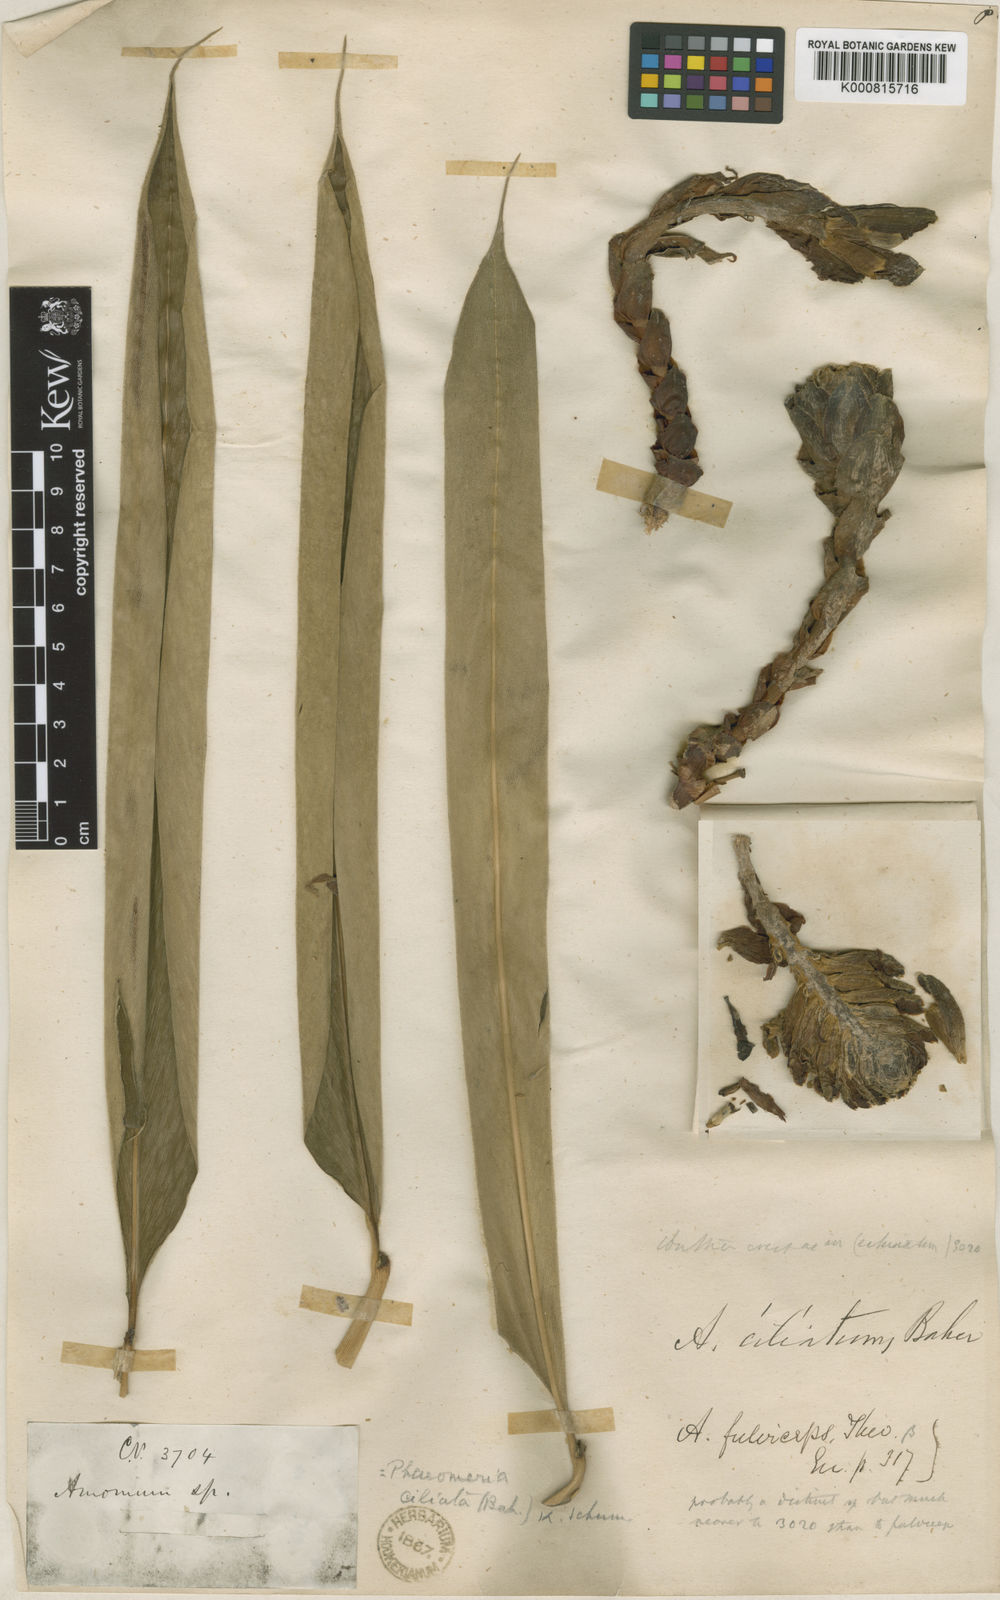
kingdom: Plantae
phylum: Tracheophyta
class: Liliopsida
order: Zingiberales
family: Zingiberaceae
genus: Meistera
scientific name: Meistera trichostachya
